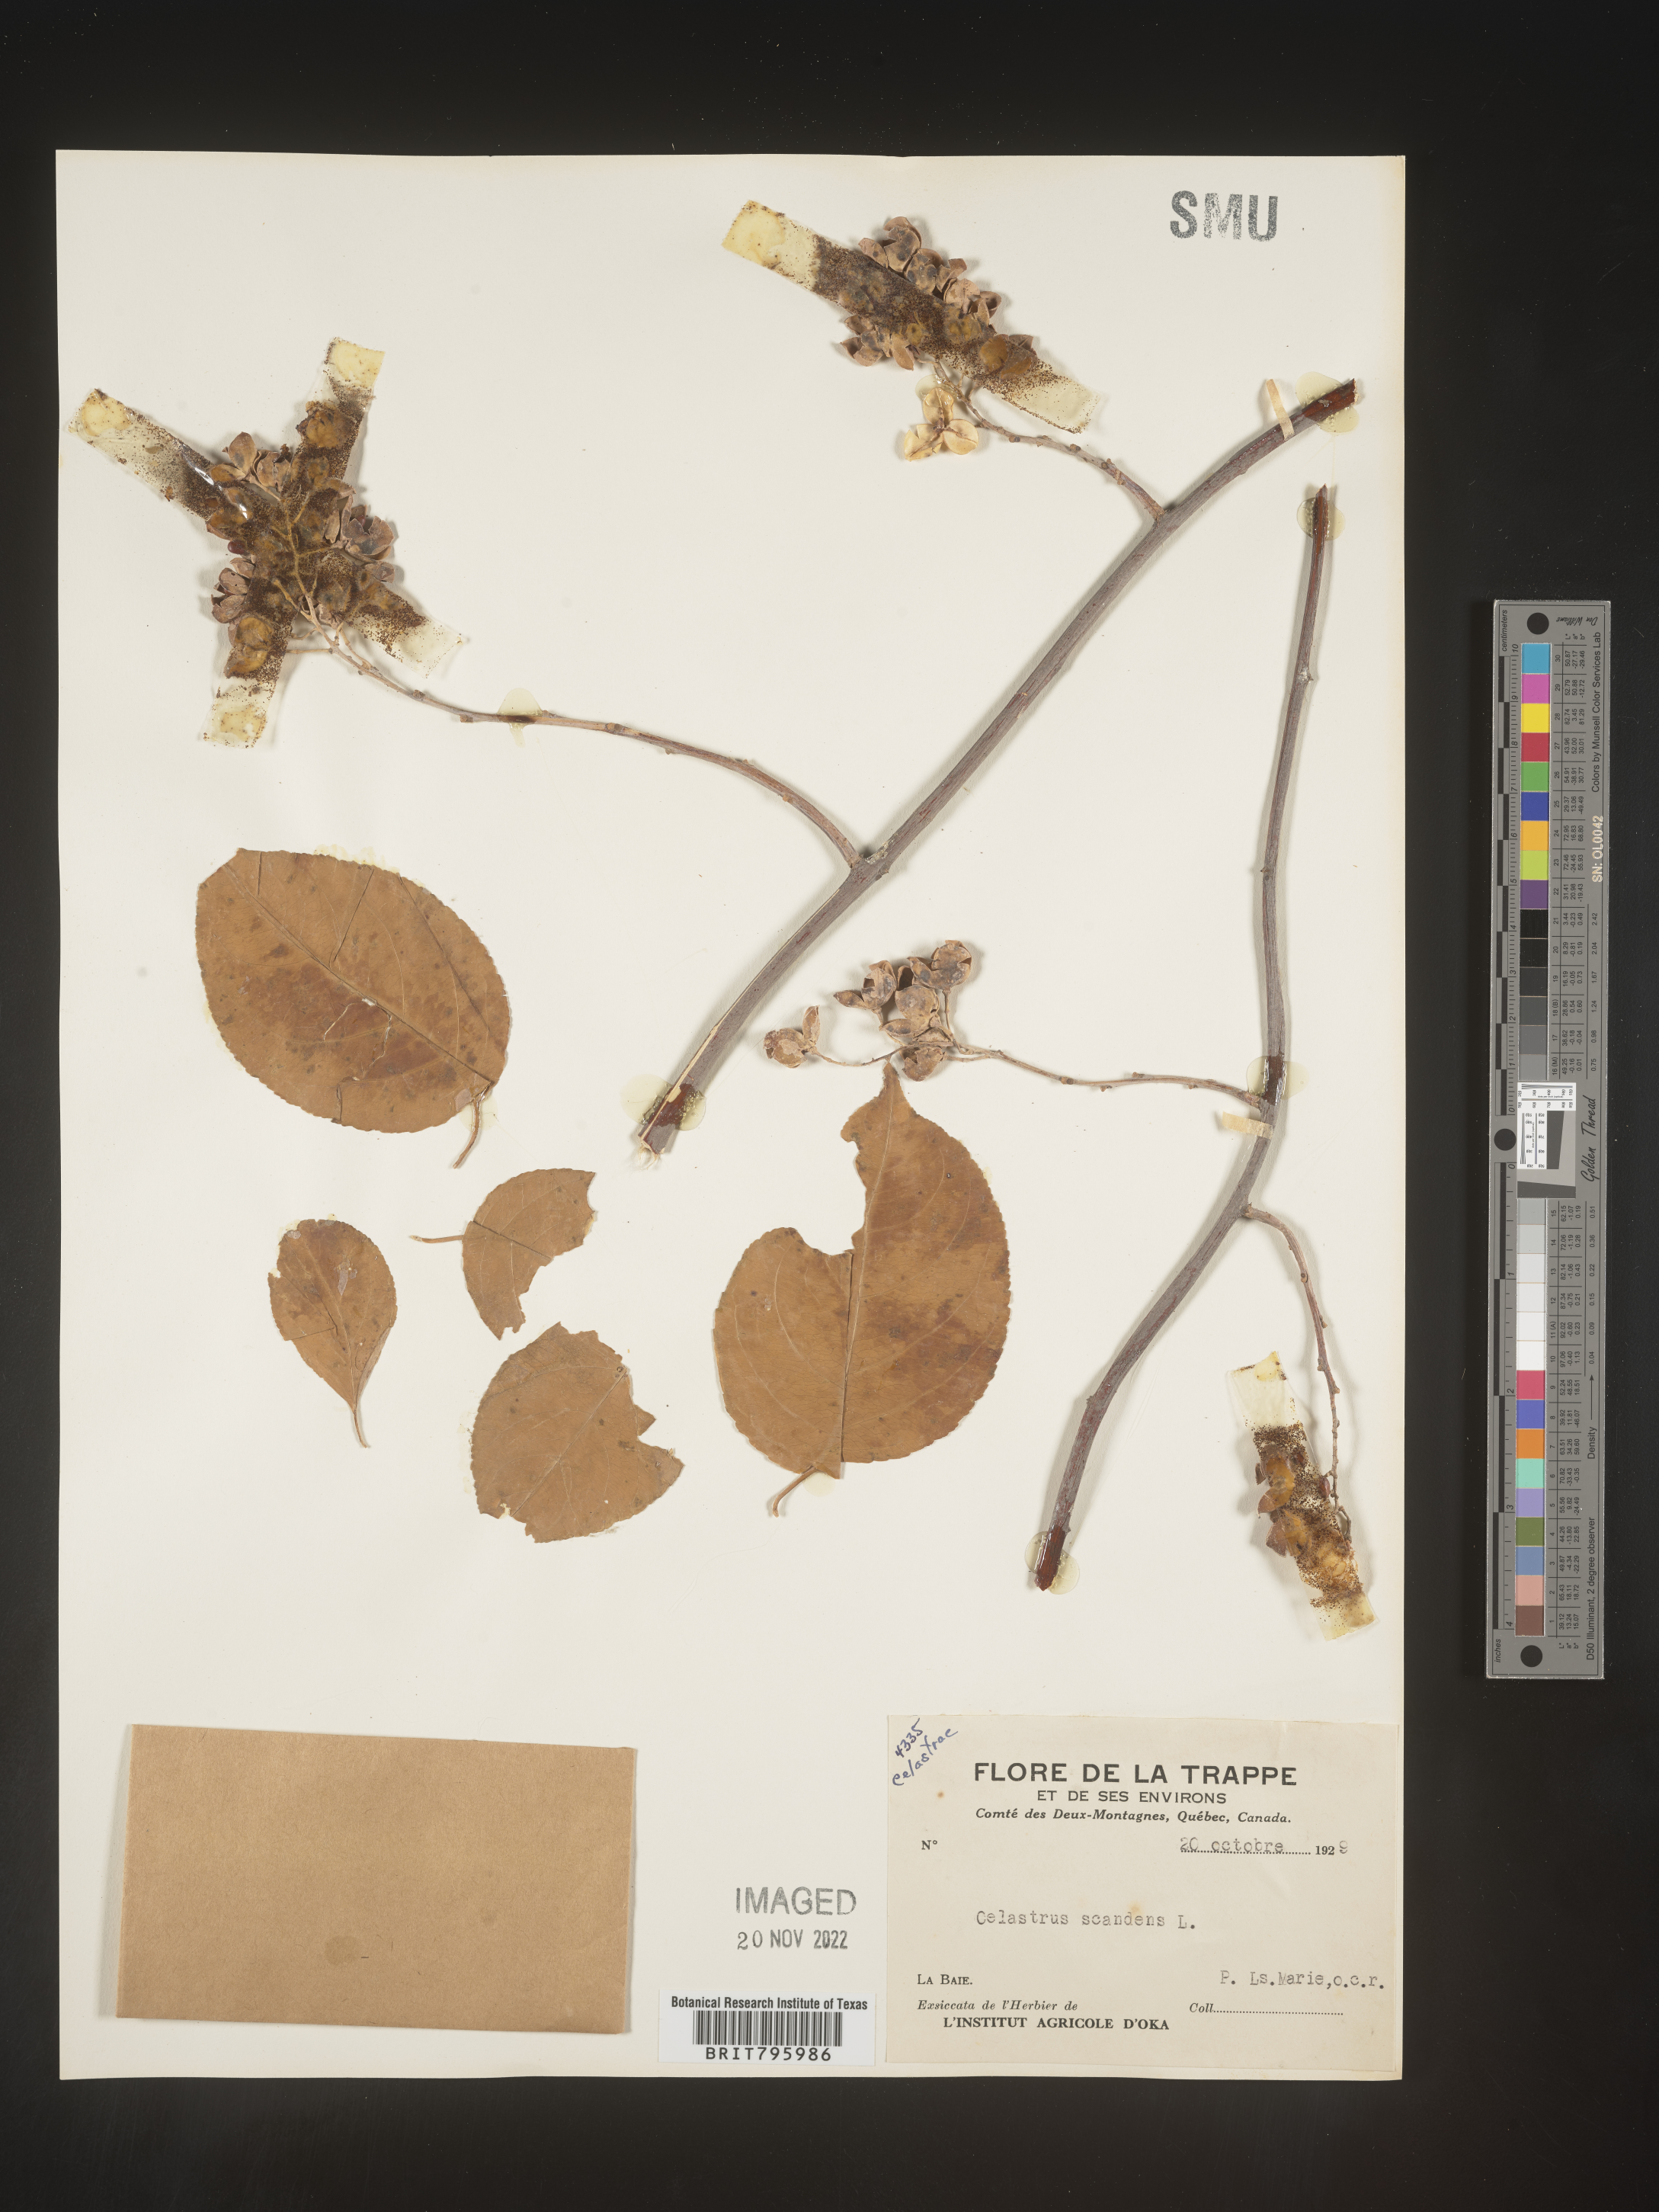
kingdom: Plantae
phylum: Tracheophyta
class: Magnoliopsida
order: Celastrales
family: Celastraceae
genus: Celastrus
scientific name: Celastrus
